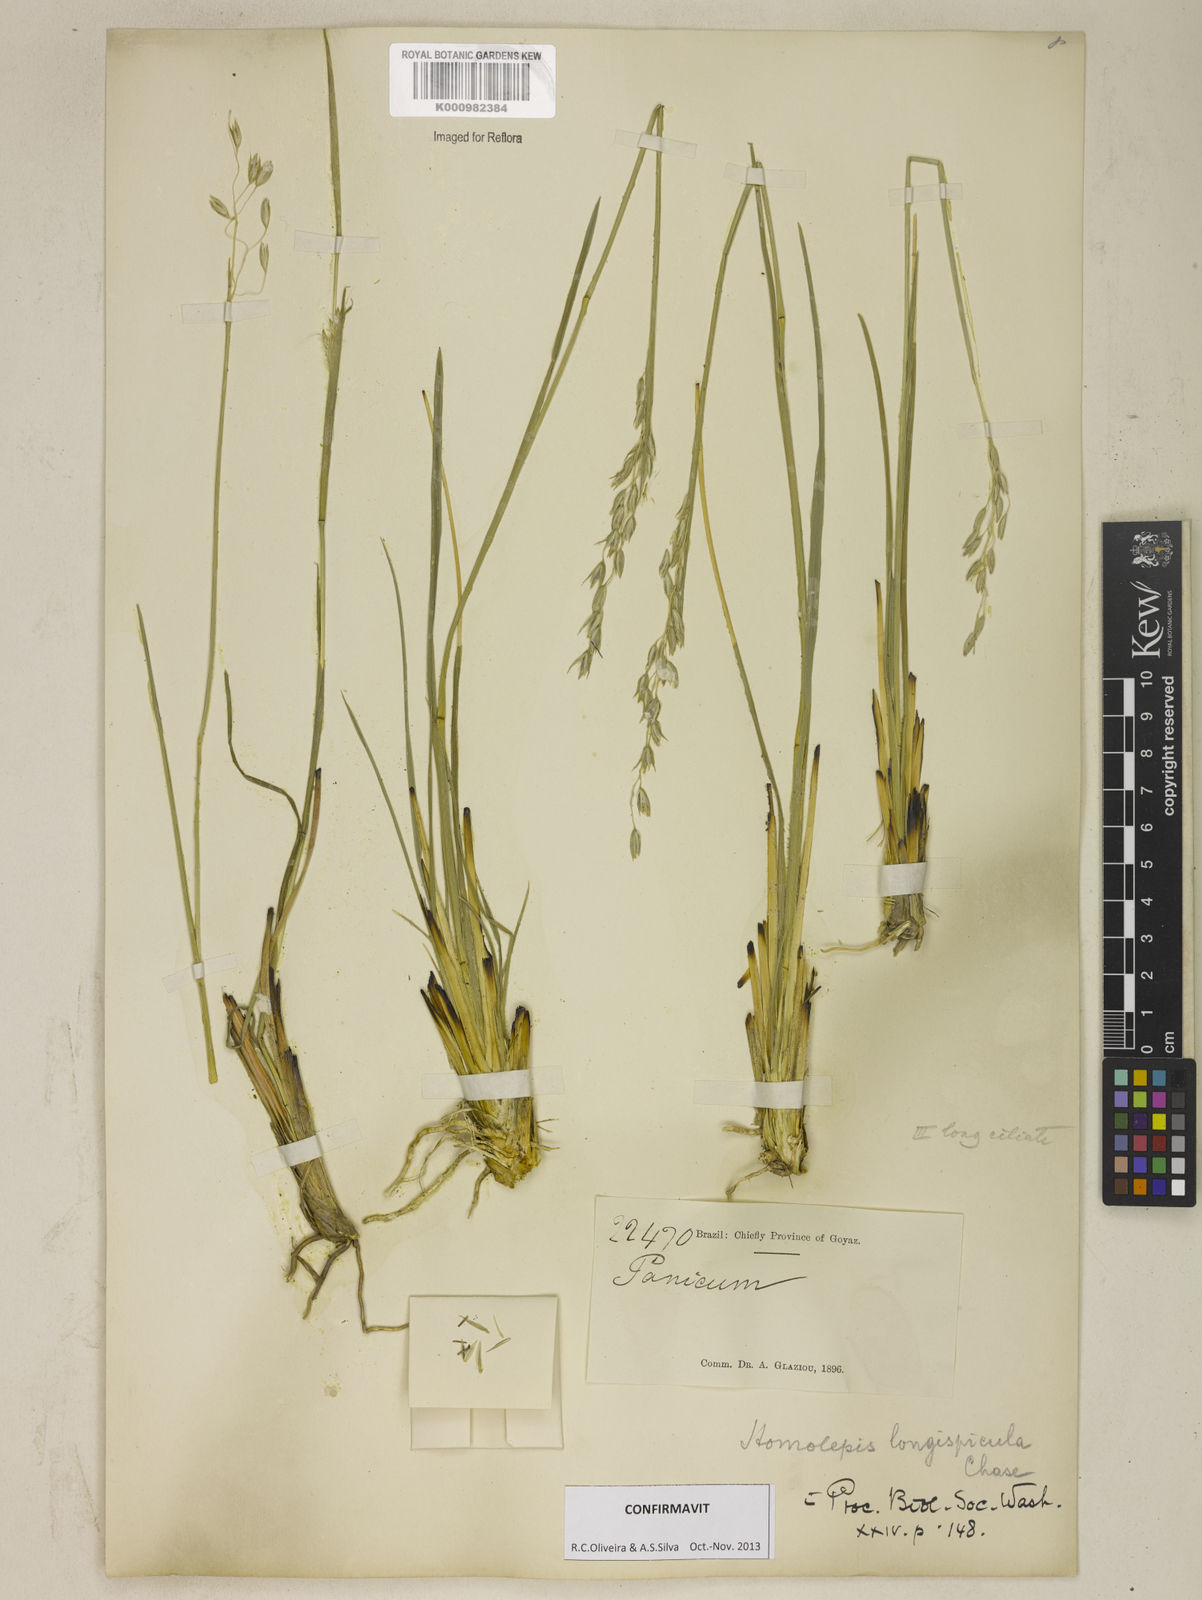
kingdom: Plantae
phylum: Tracheophyta
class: Liliopsida
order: Poales
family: Poaceae
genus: Homolepis
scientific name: Homolepis
